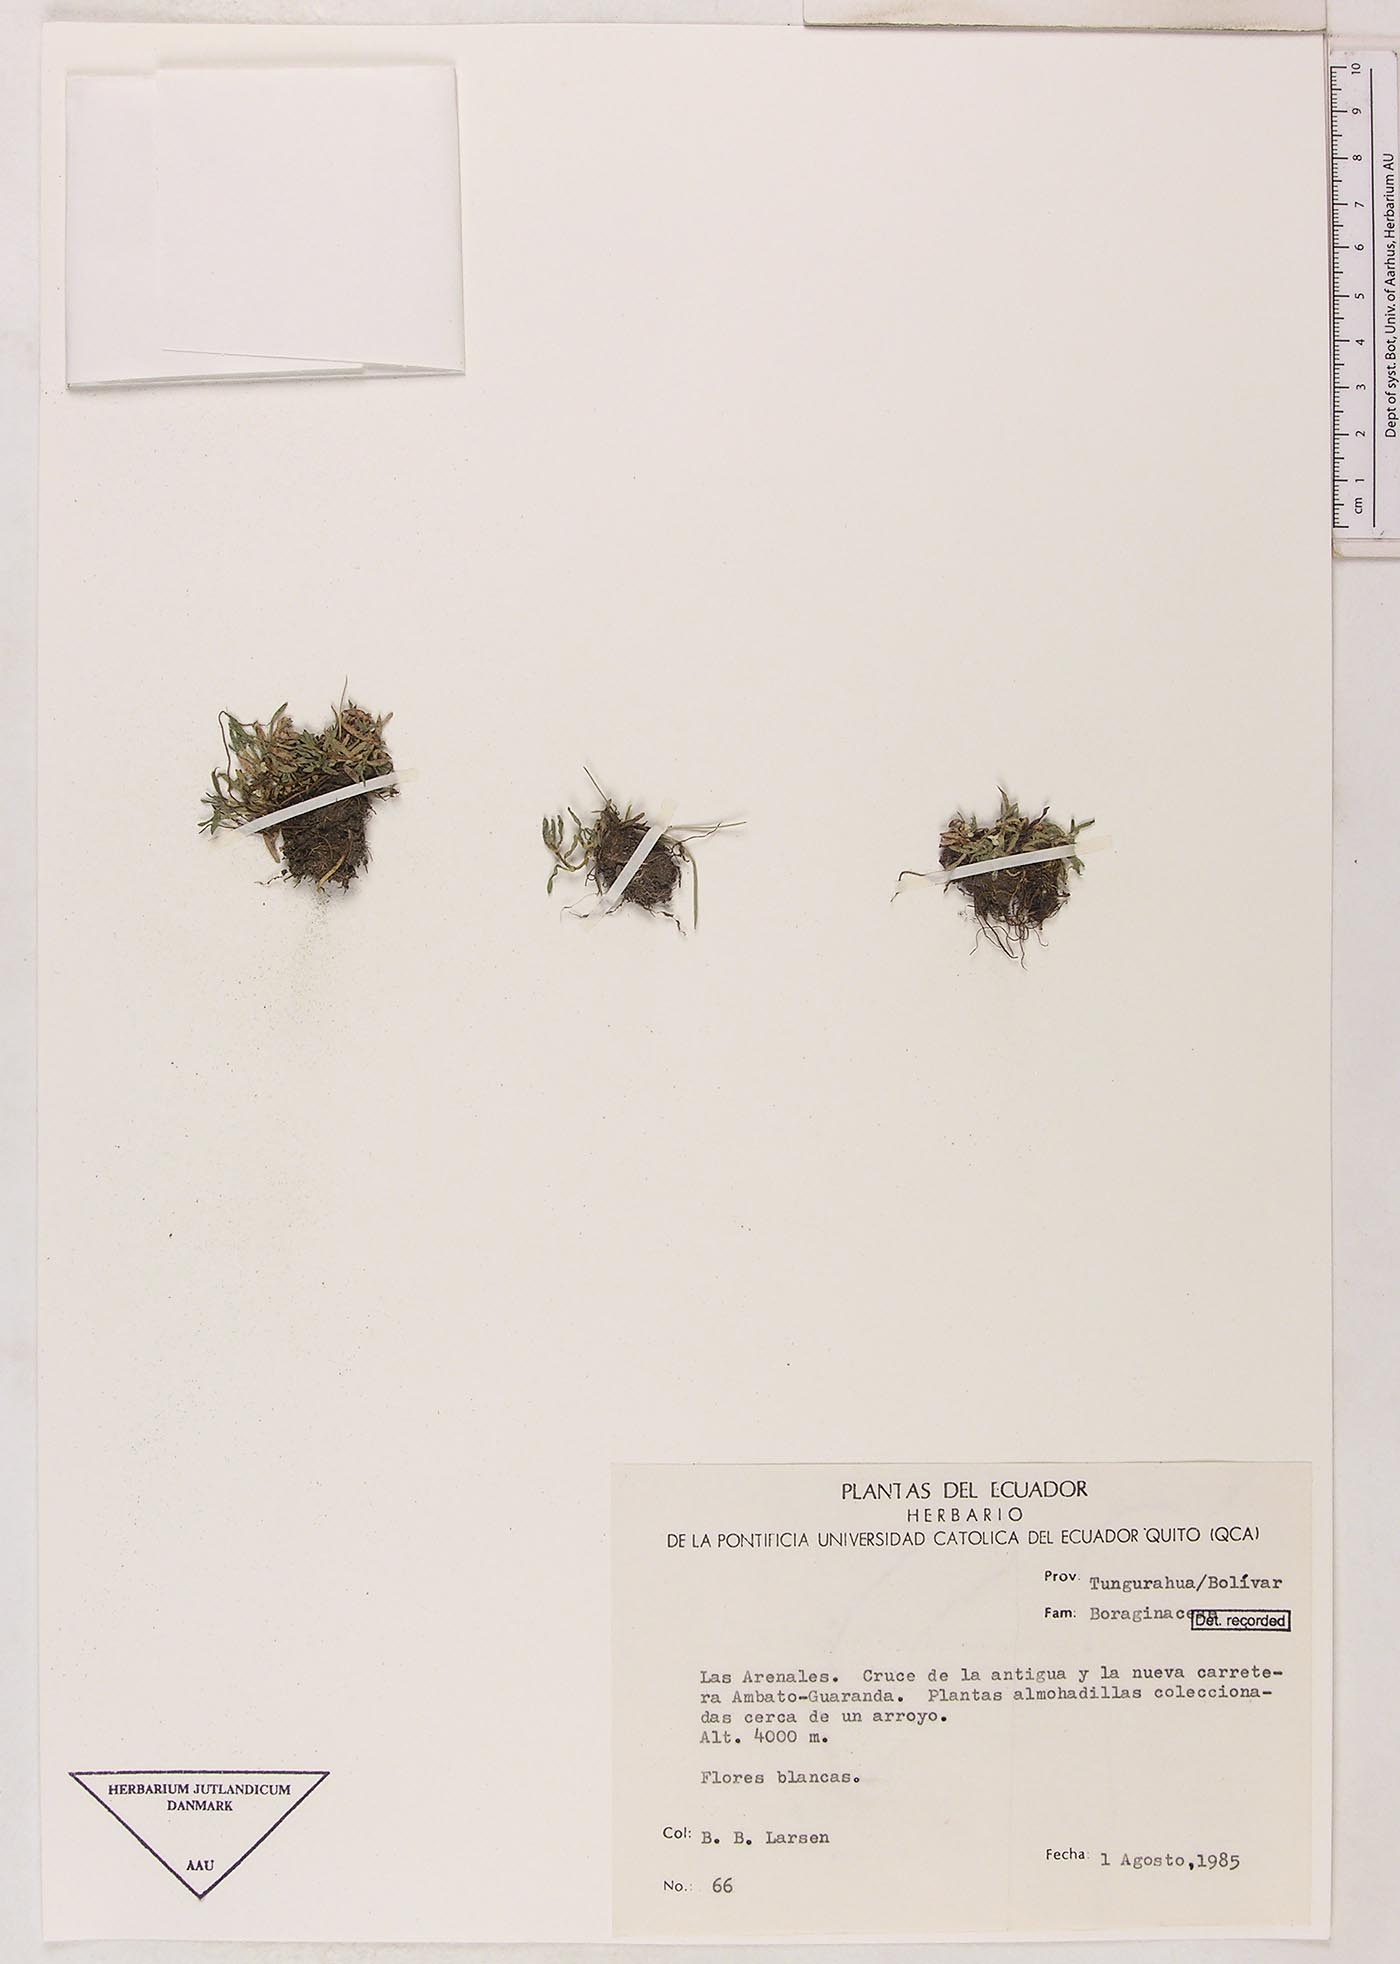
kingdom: Plantae
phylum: Tracheophyta
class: Magnoliopsida
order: Boraginales
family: Boraginaceae
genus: Plagiobothrys
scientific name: Plagiobothrys linifolius
